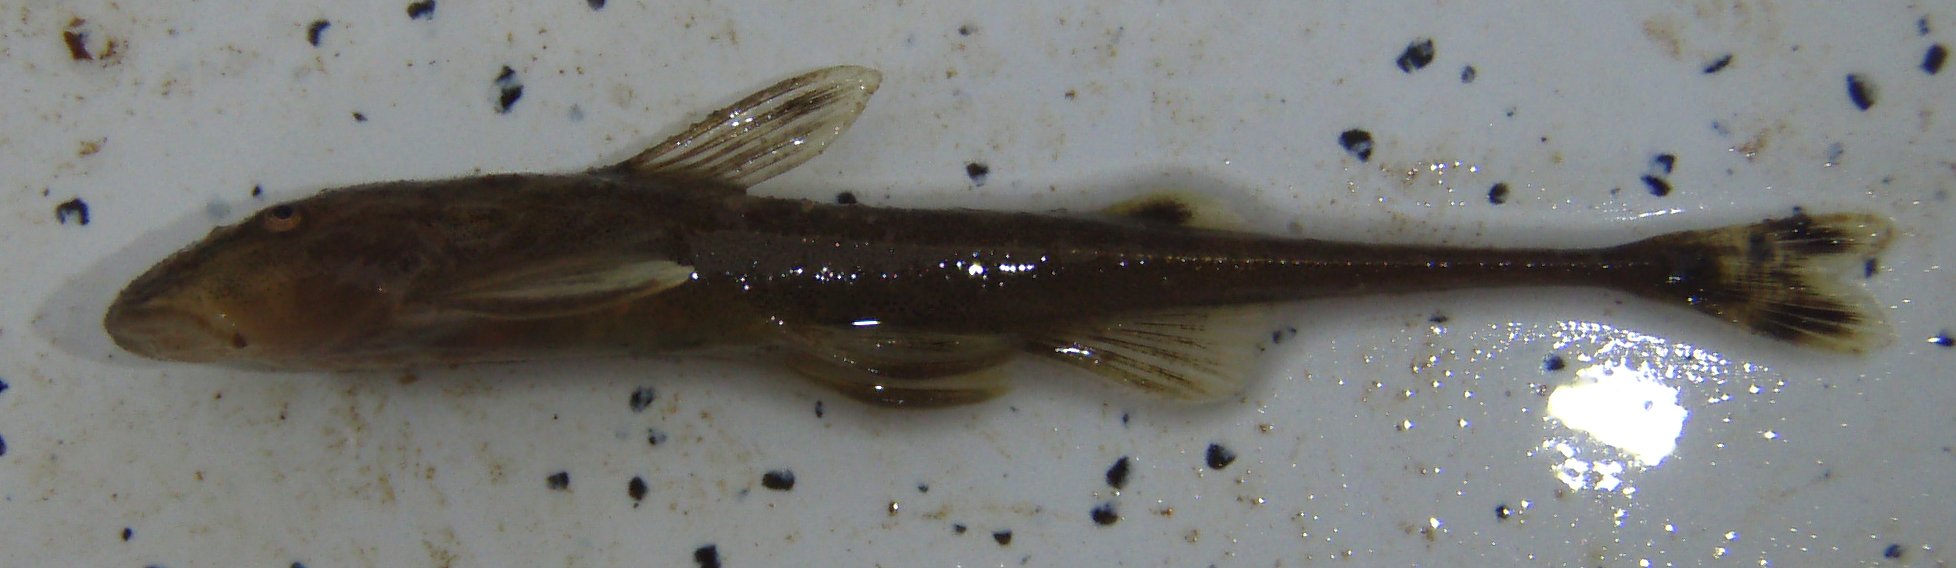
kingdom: Animalia
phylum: Chordata
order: Siluriformes
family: Amphiliidae
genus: Phractura
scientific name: Phractura
